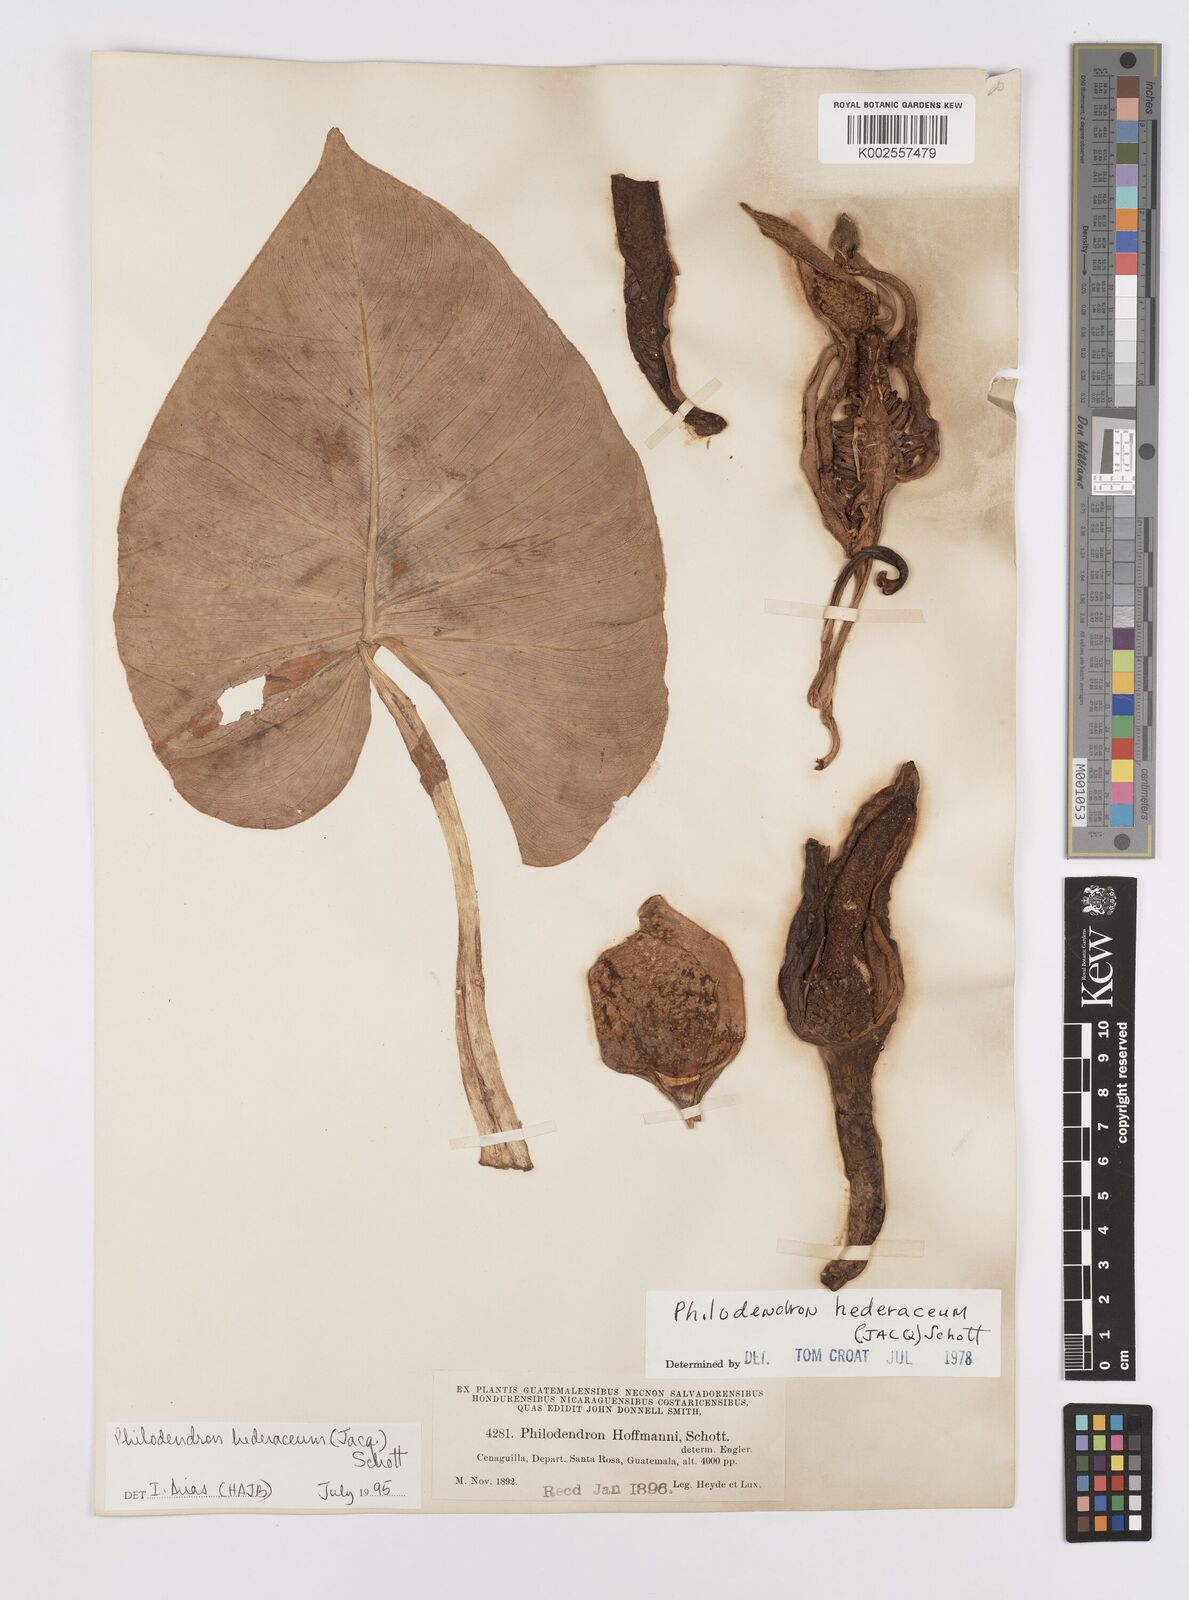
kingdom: Plantae
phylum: Tracheophyta
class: Liliopsida
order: Alismatales
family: Araceae
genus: Philodendron
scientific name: Philodendron hederaceum
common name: Vilevine
